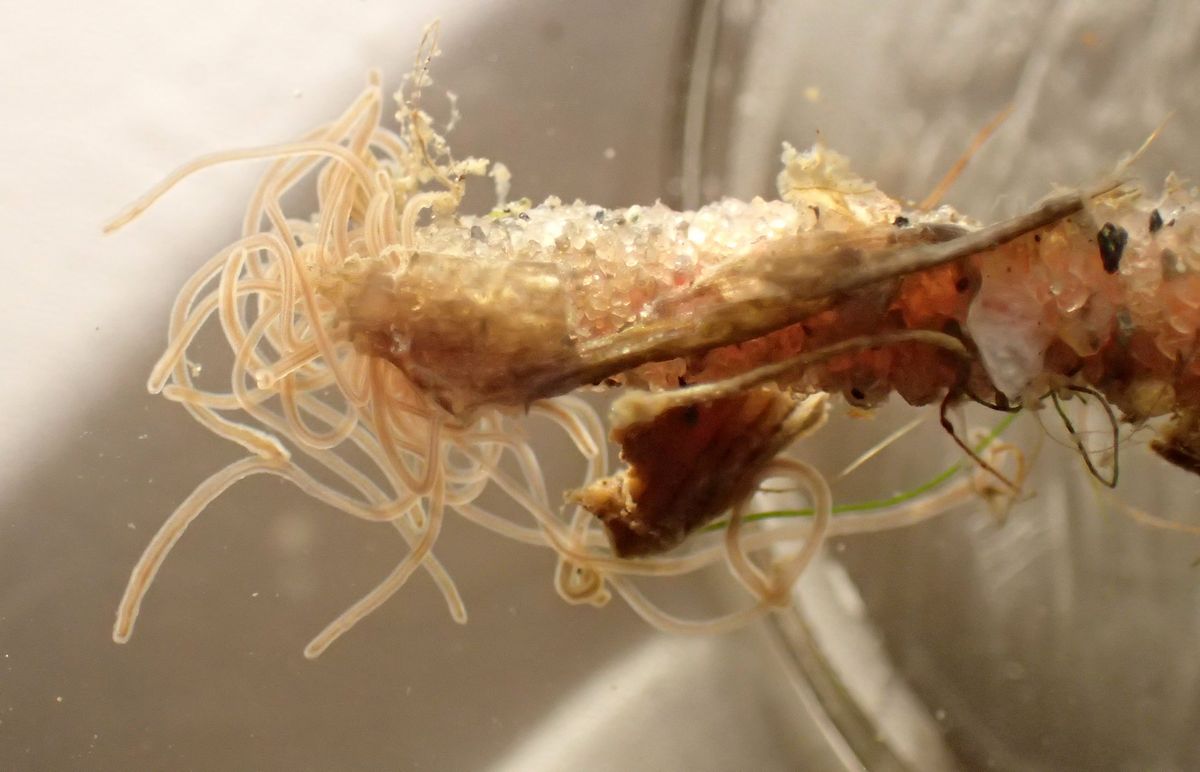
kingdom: Animalia
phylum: Annelida
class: Polychaeta
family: Terebellidae
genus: Pista
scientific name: Pista maculata
